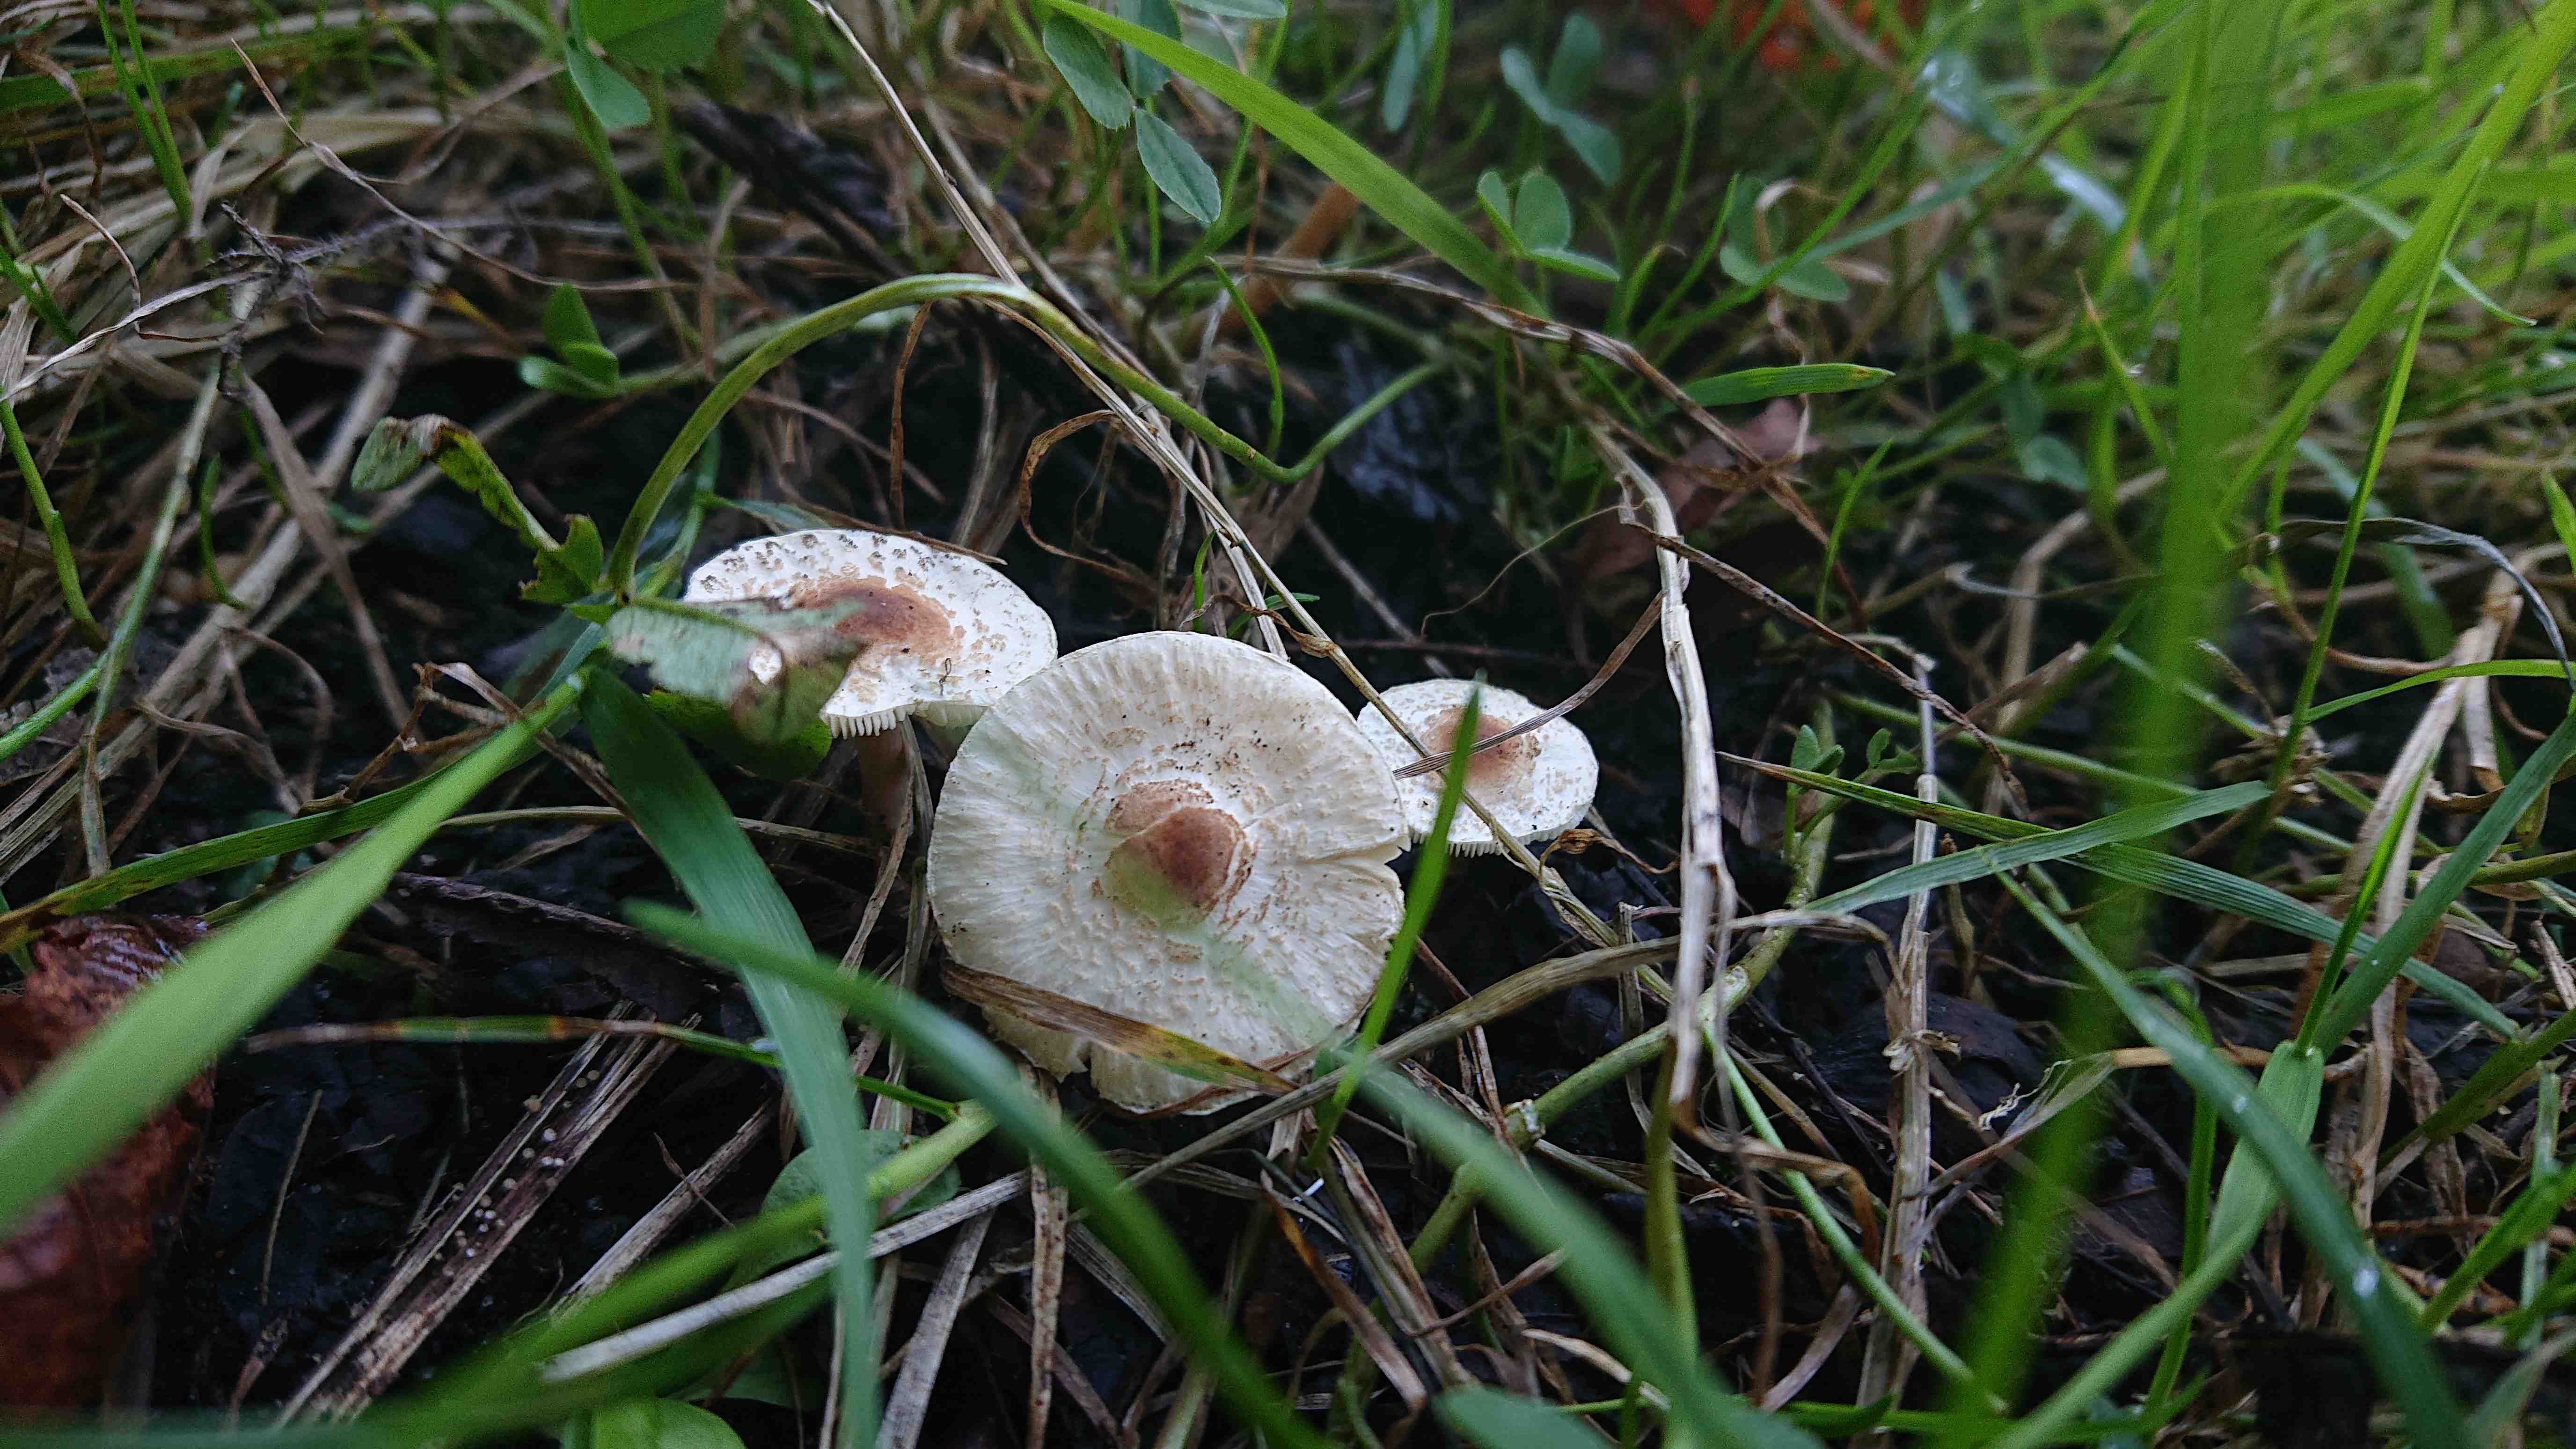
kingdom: Fungi
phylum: Basidiomycota
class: Agaricomycetes
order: Agaricales
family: Agaricaceae
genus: Lepiota
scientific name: Lepiota cristata
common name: stinkende parasolhat
